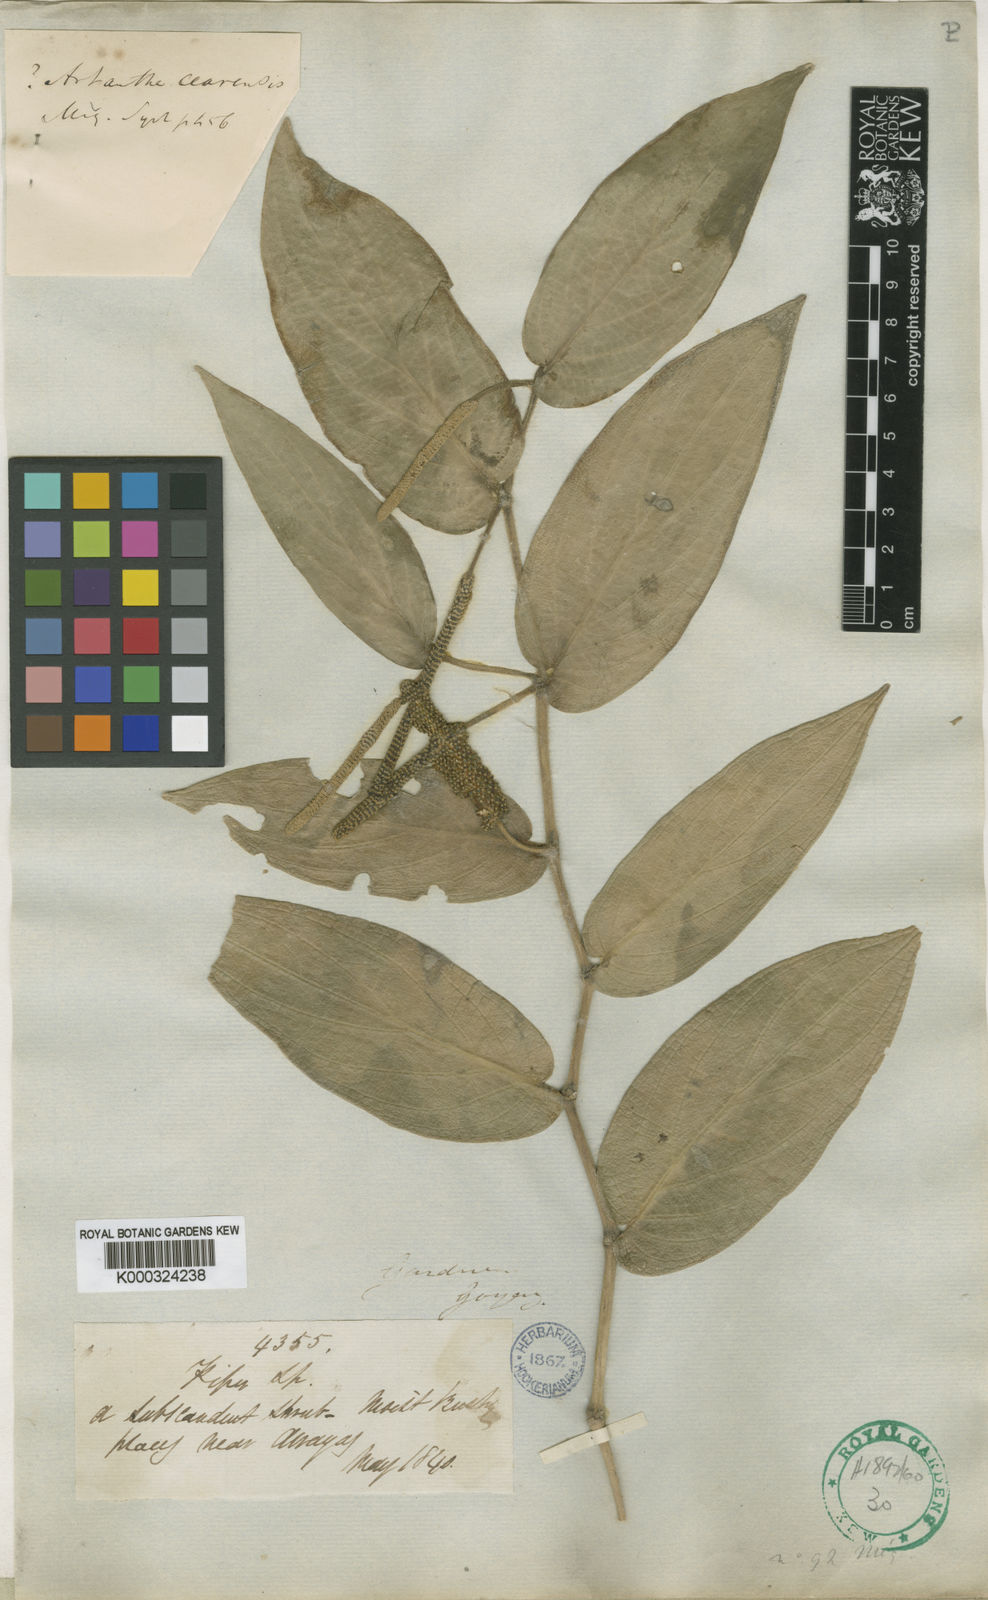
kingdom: Plantae
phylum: Tracheophyta
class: Magnoliopsida
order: Piperales
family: Piperaceae
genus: Piper
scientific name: Piper aduncum
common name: Spiked pepper
